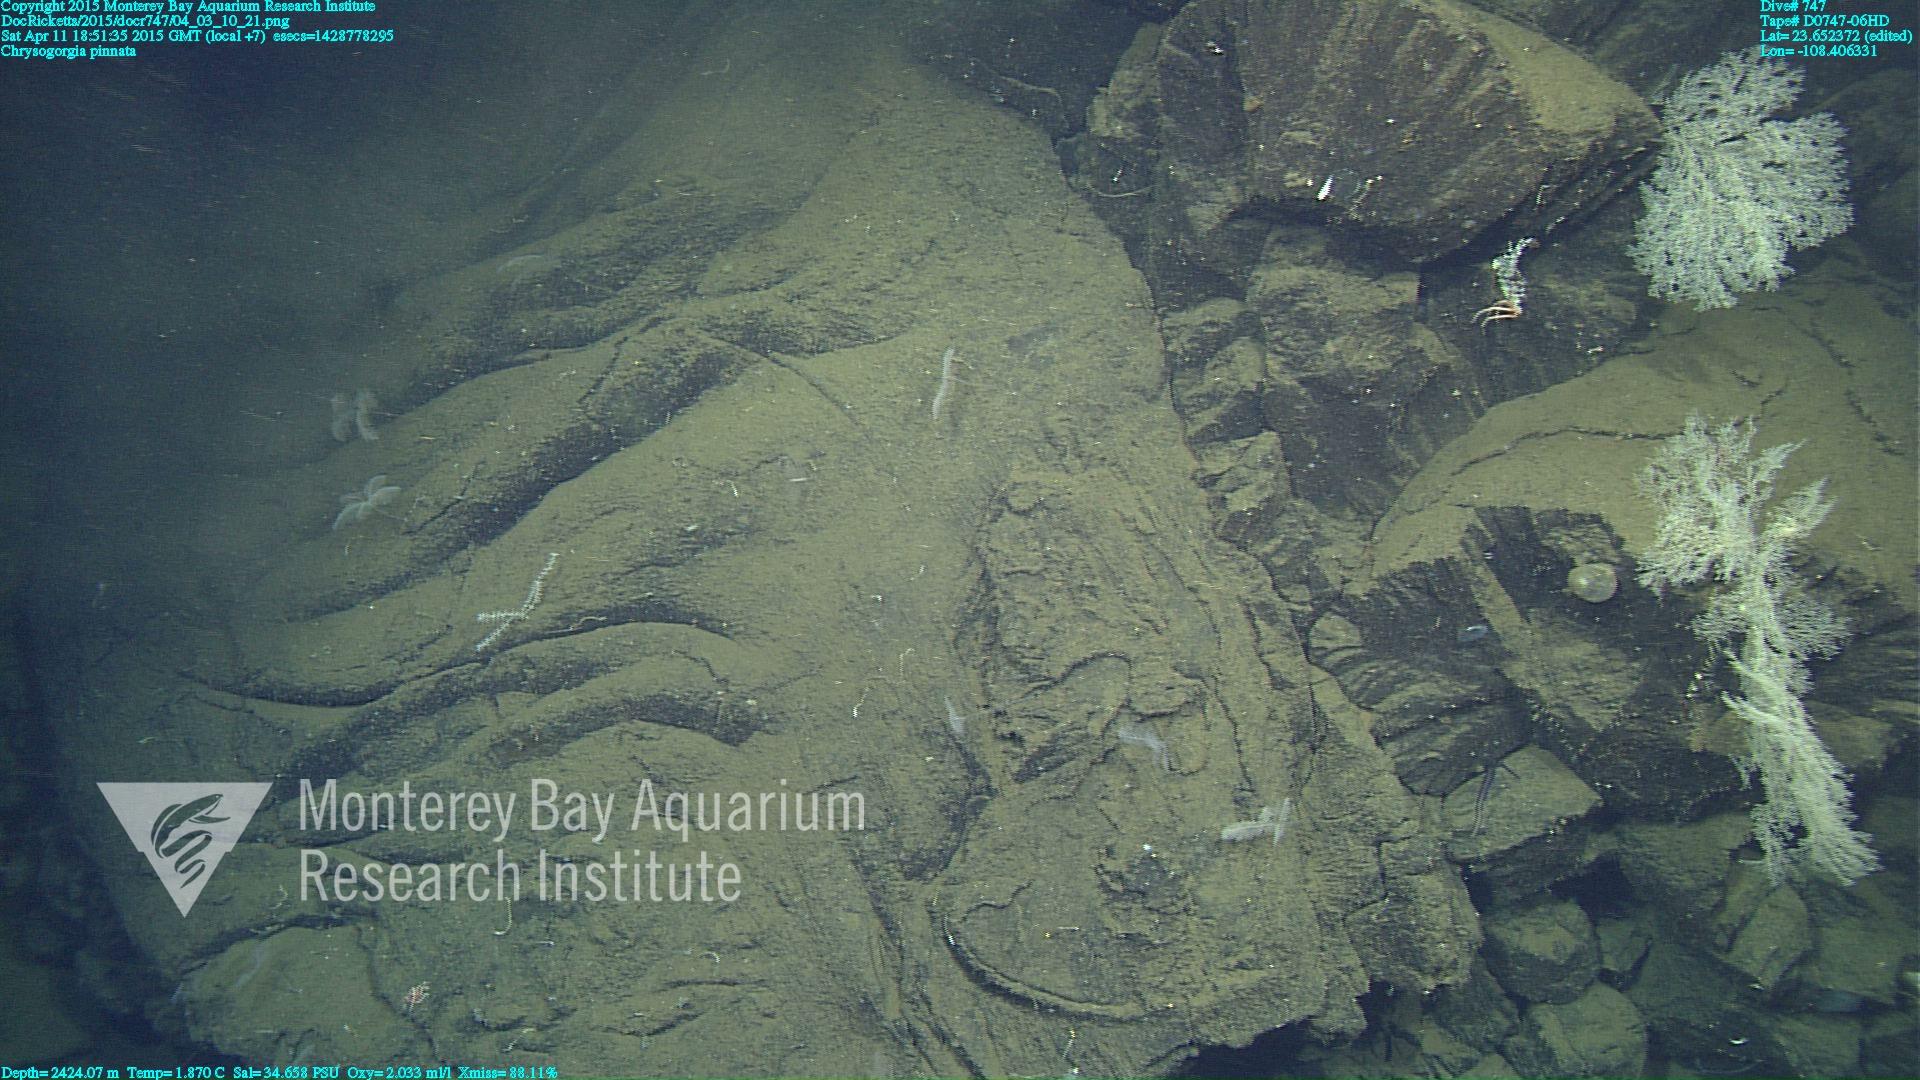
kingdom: Animalia
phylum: Cnidaria
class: Anthozoa
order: Scleralcyonacea
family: Chrysogorgiidae
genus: Chrysogorgia
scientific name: Chrysogorgia pinnata
